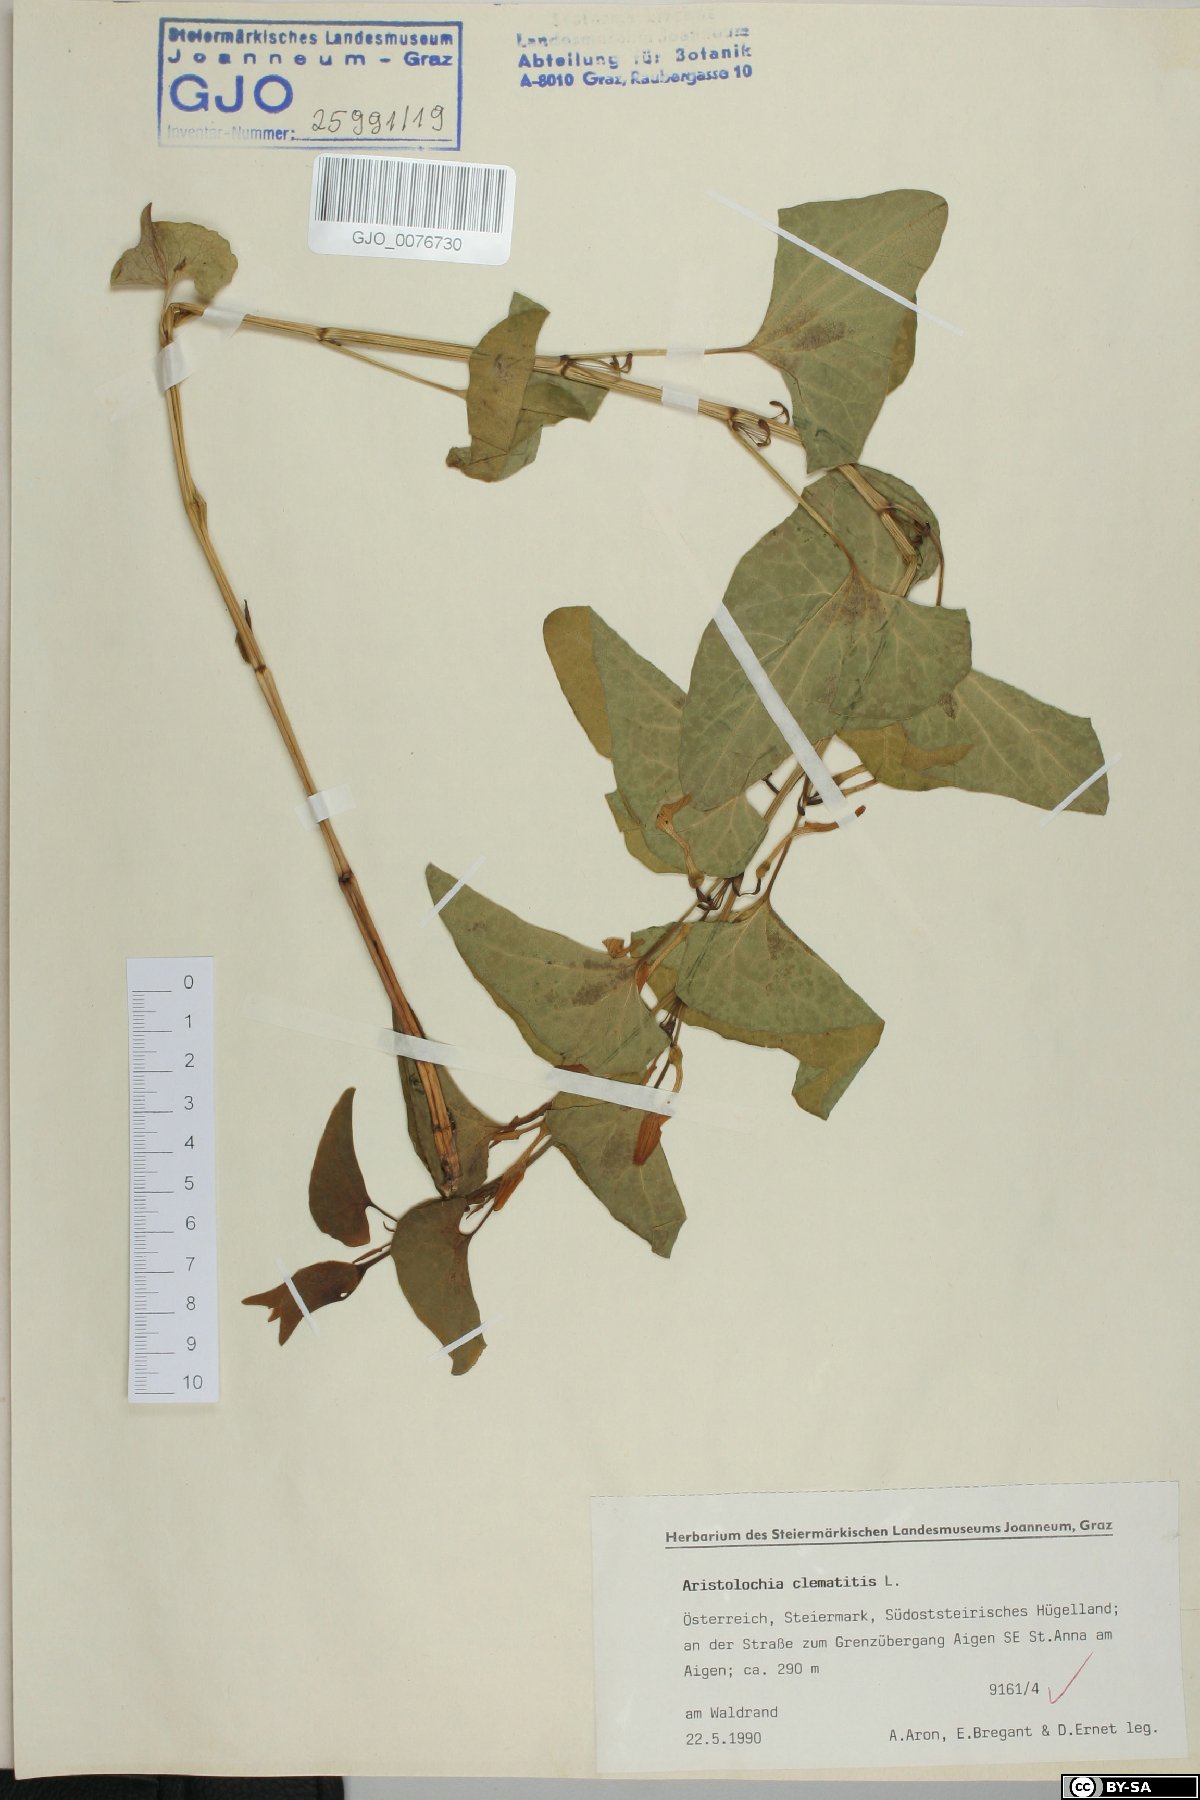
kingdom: Plantae
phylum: Tracheophyta
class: Magnoliopsida
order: Piperales
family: Aristolochiaceae
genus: Aristolochia
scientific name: Aristolochia clematitis
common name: Birthwort
